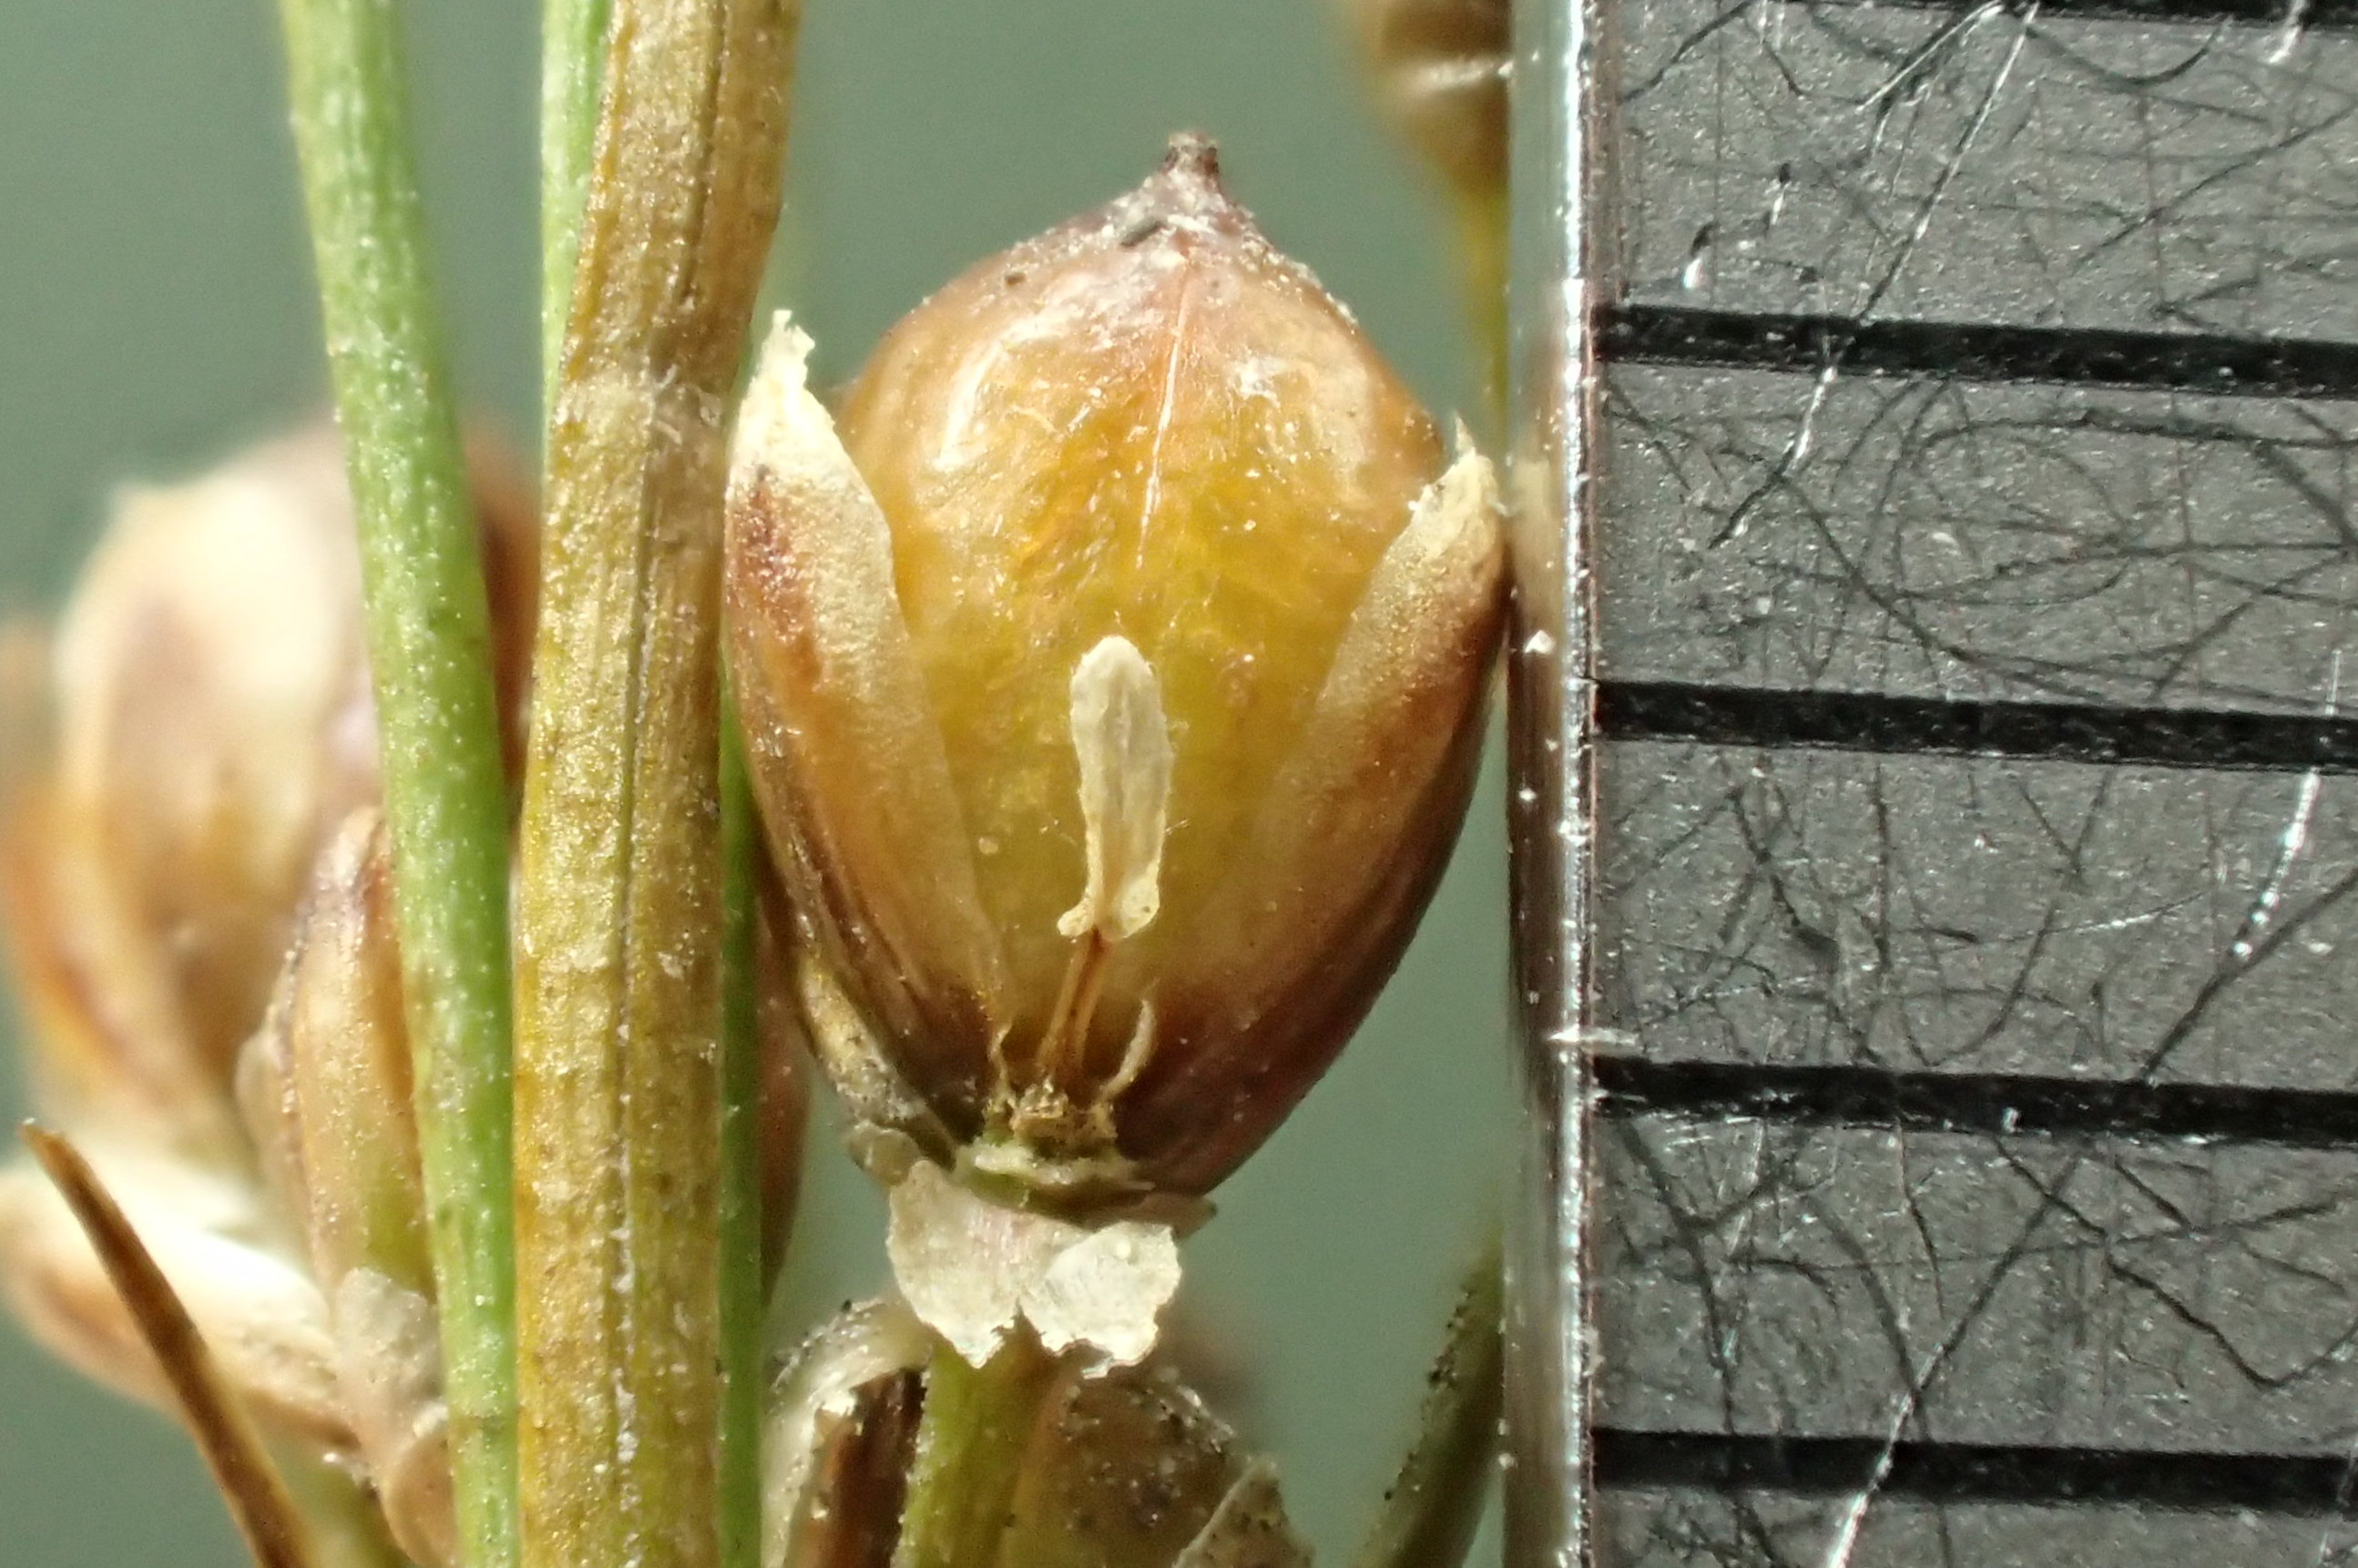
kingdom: Plantae
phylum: Tracheophyta
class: Liliopsida
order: Poales
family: Juncaceae
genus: Juncus
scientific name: Juncus compressus
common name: Fladstrået siv
